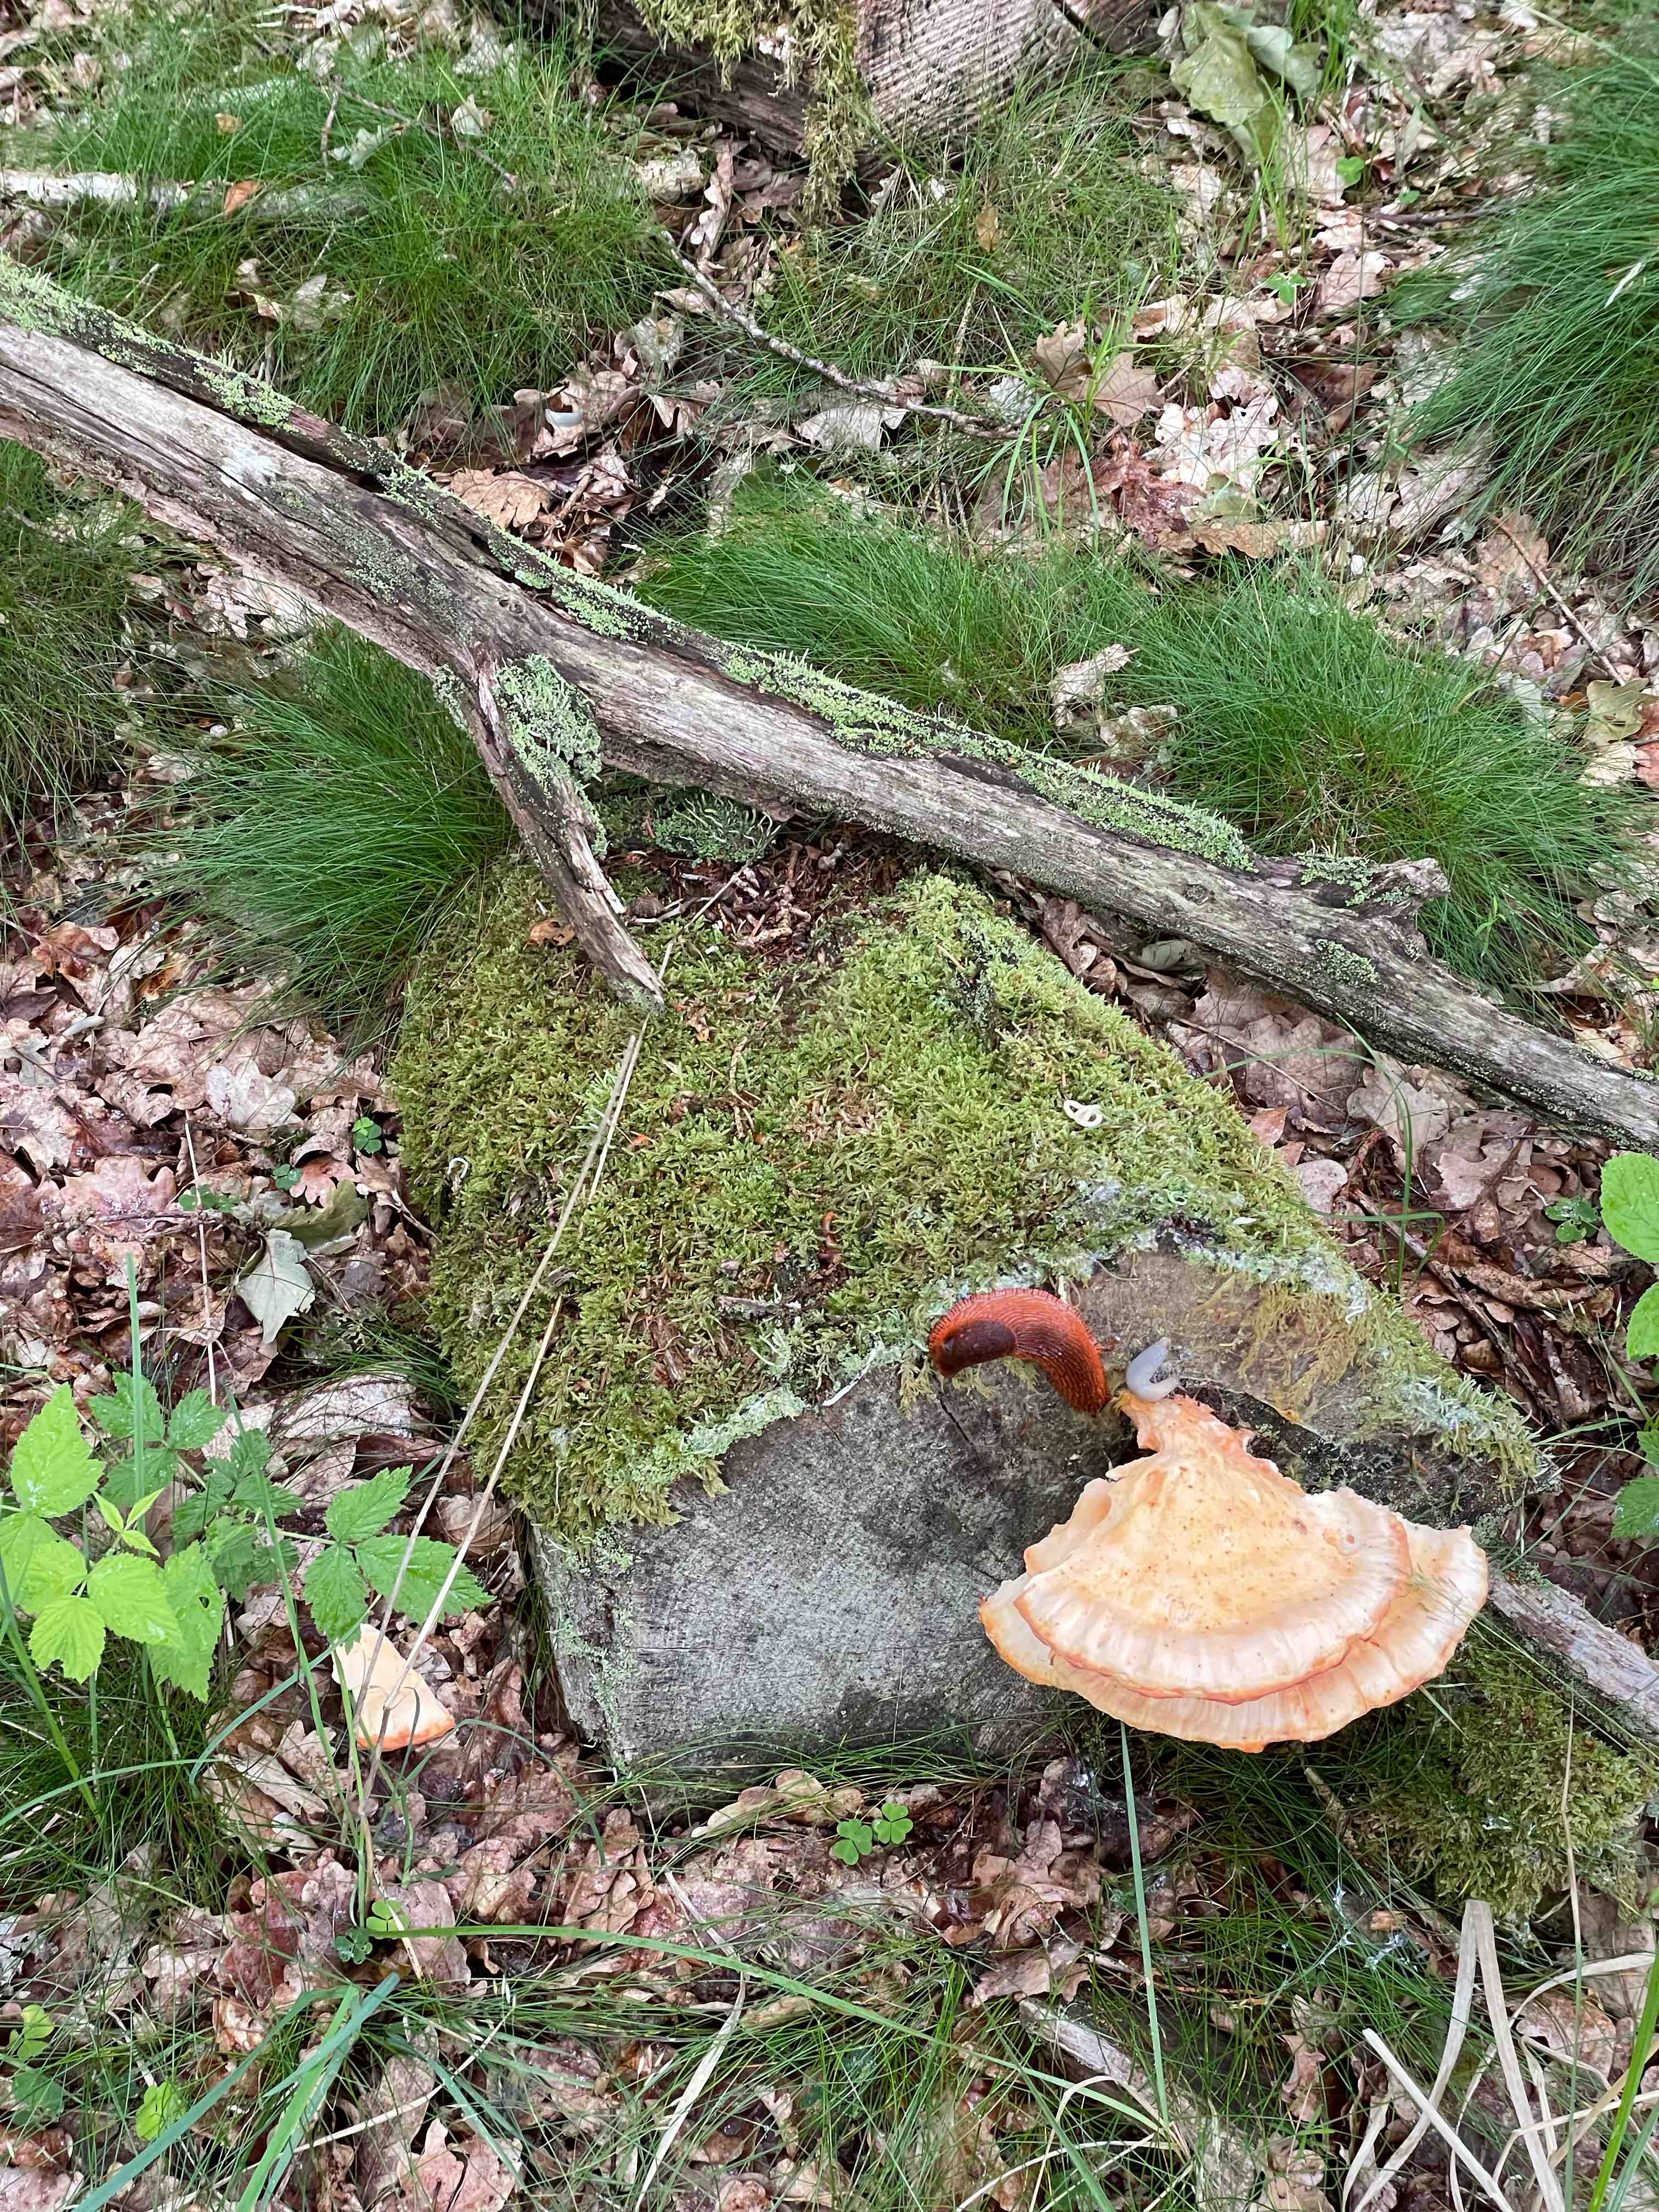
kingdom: Fungi
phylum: Basidiomycota
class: Agaricomycetes
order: Polyporales
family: Laetiporaceae
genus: Laetiporus
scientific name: Laetiporus sulphureus
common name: svovlporesvamp
